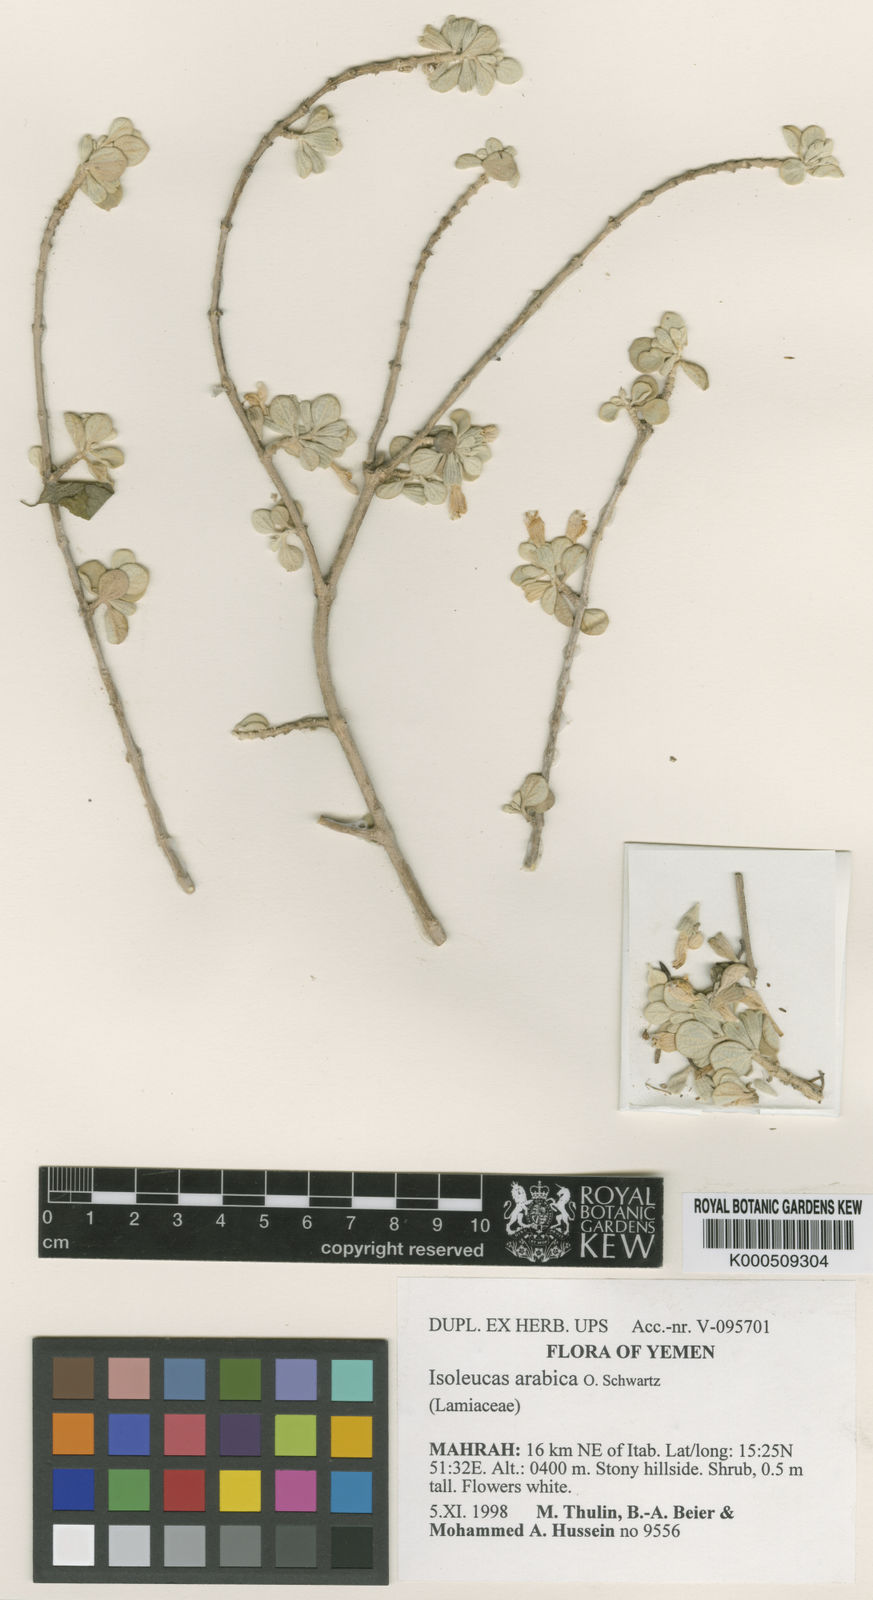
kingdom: Plantae
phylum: Tracheophyta
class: Magnoliopsida
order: Lamiales
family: Lamiaceae
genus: Isoleucas
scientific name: Isoleucas arabica
